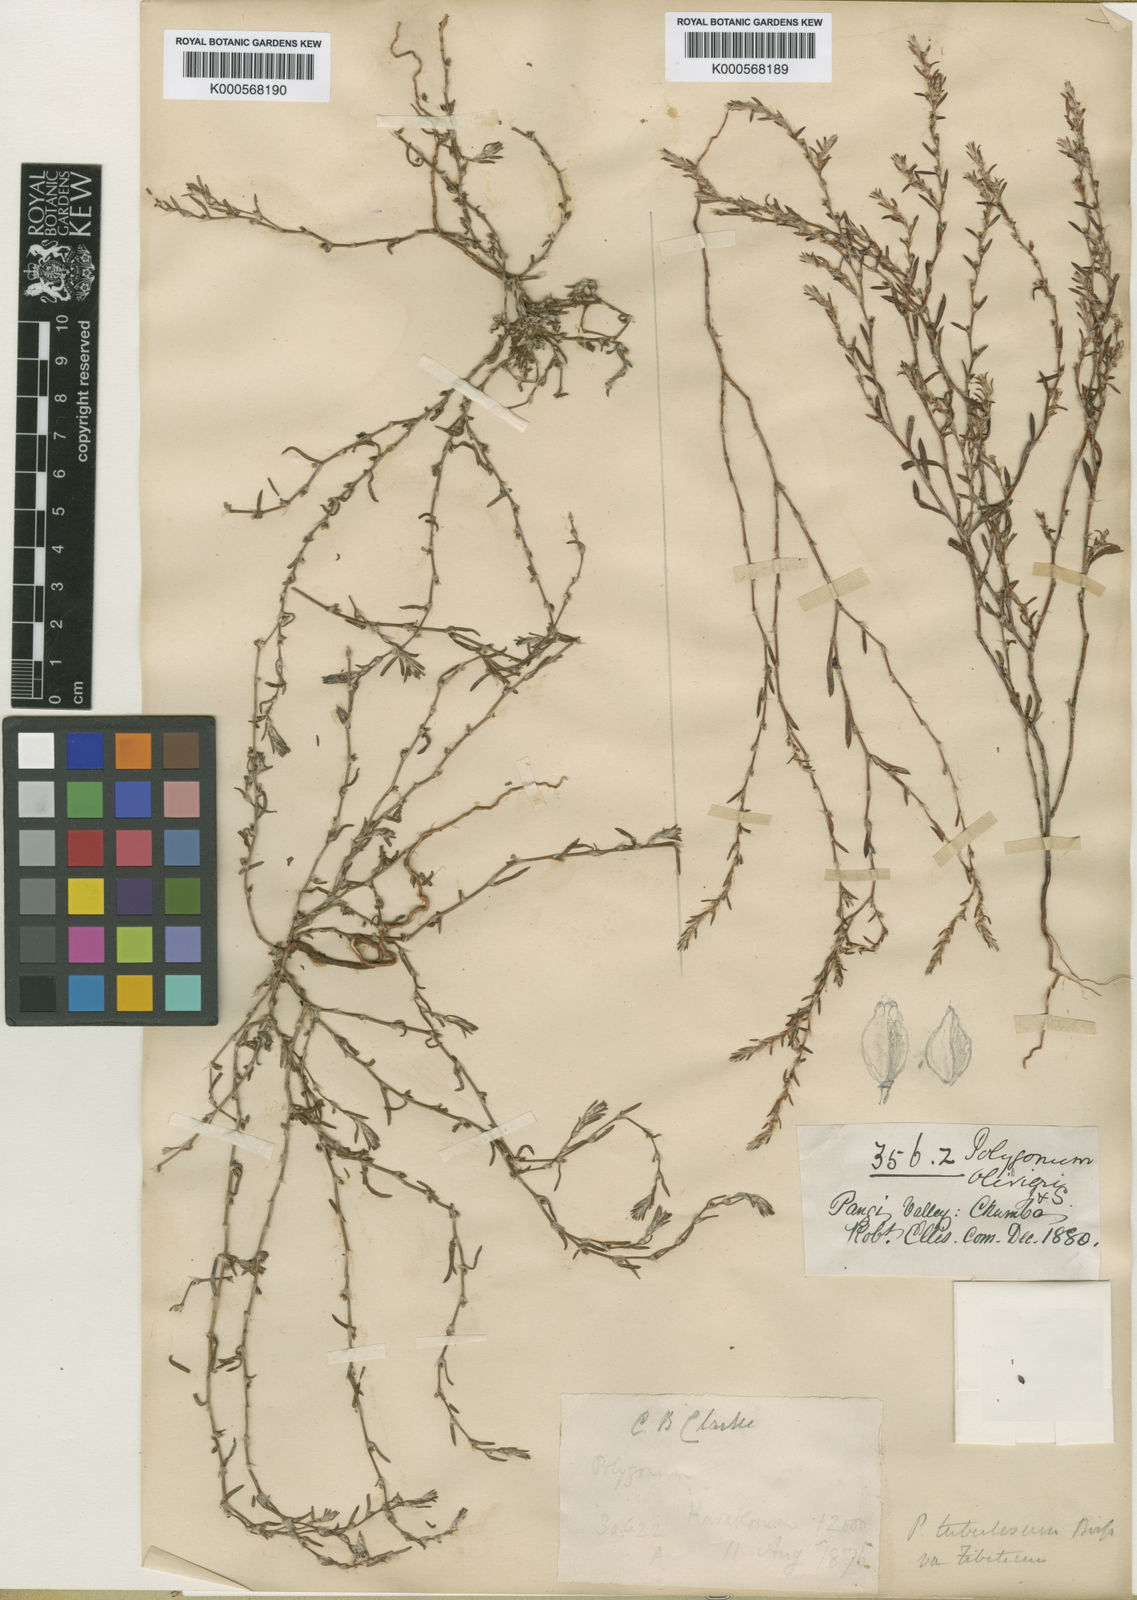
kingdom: Plantae
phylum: Tracheophyta
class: Magnoliopsida
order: Caryophyllales
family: Polygonaceae
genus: Polygonum
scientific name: Polygonum rottboellioides
